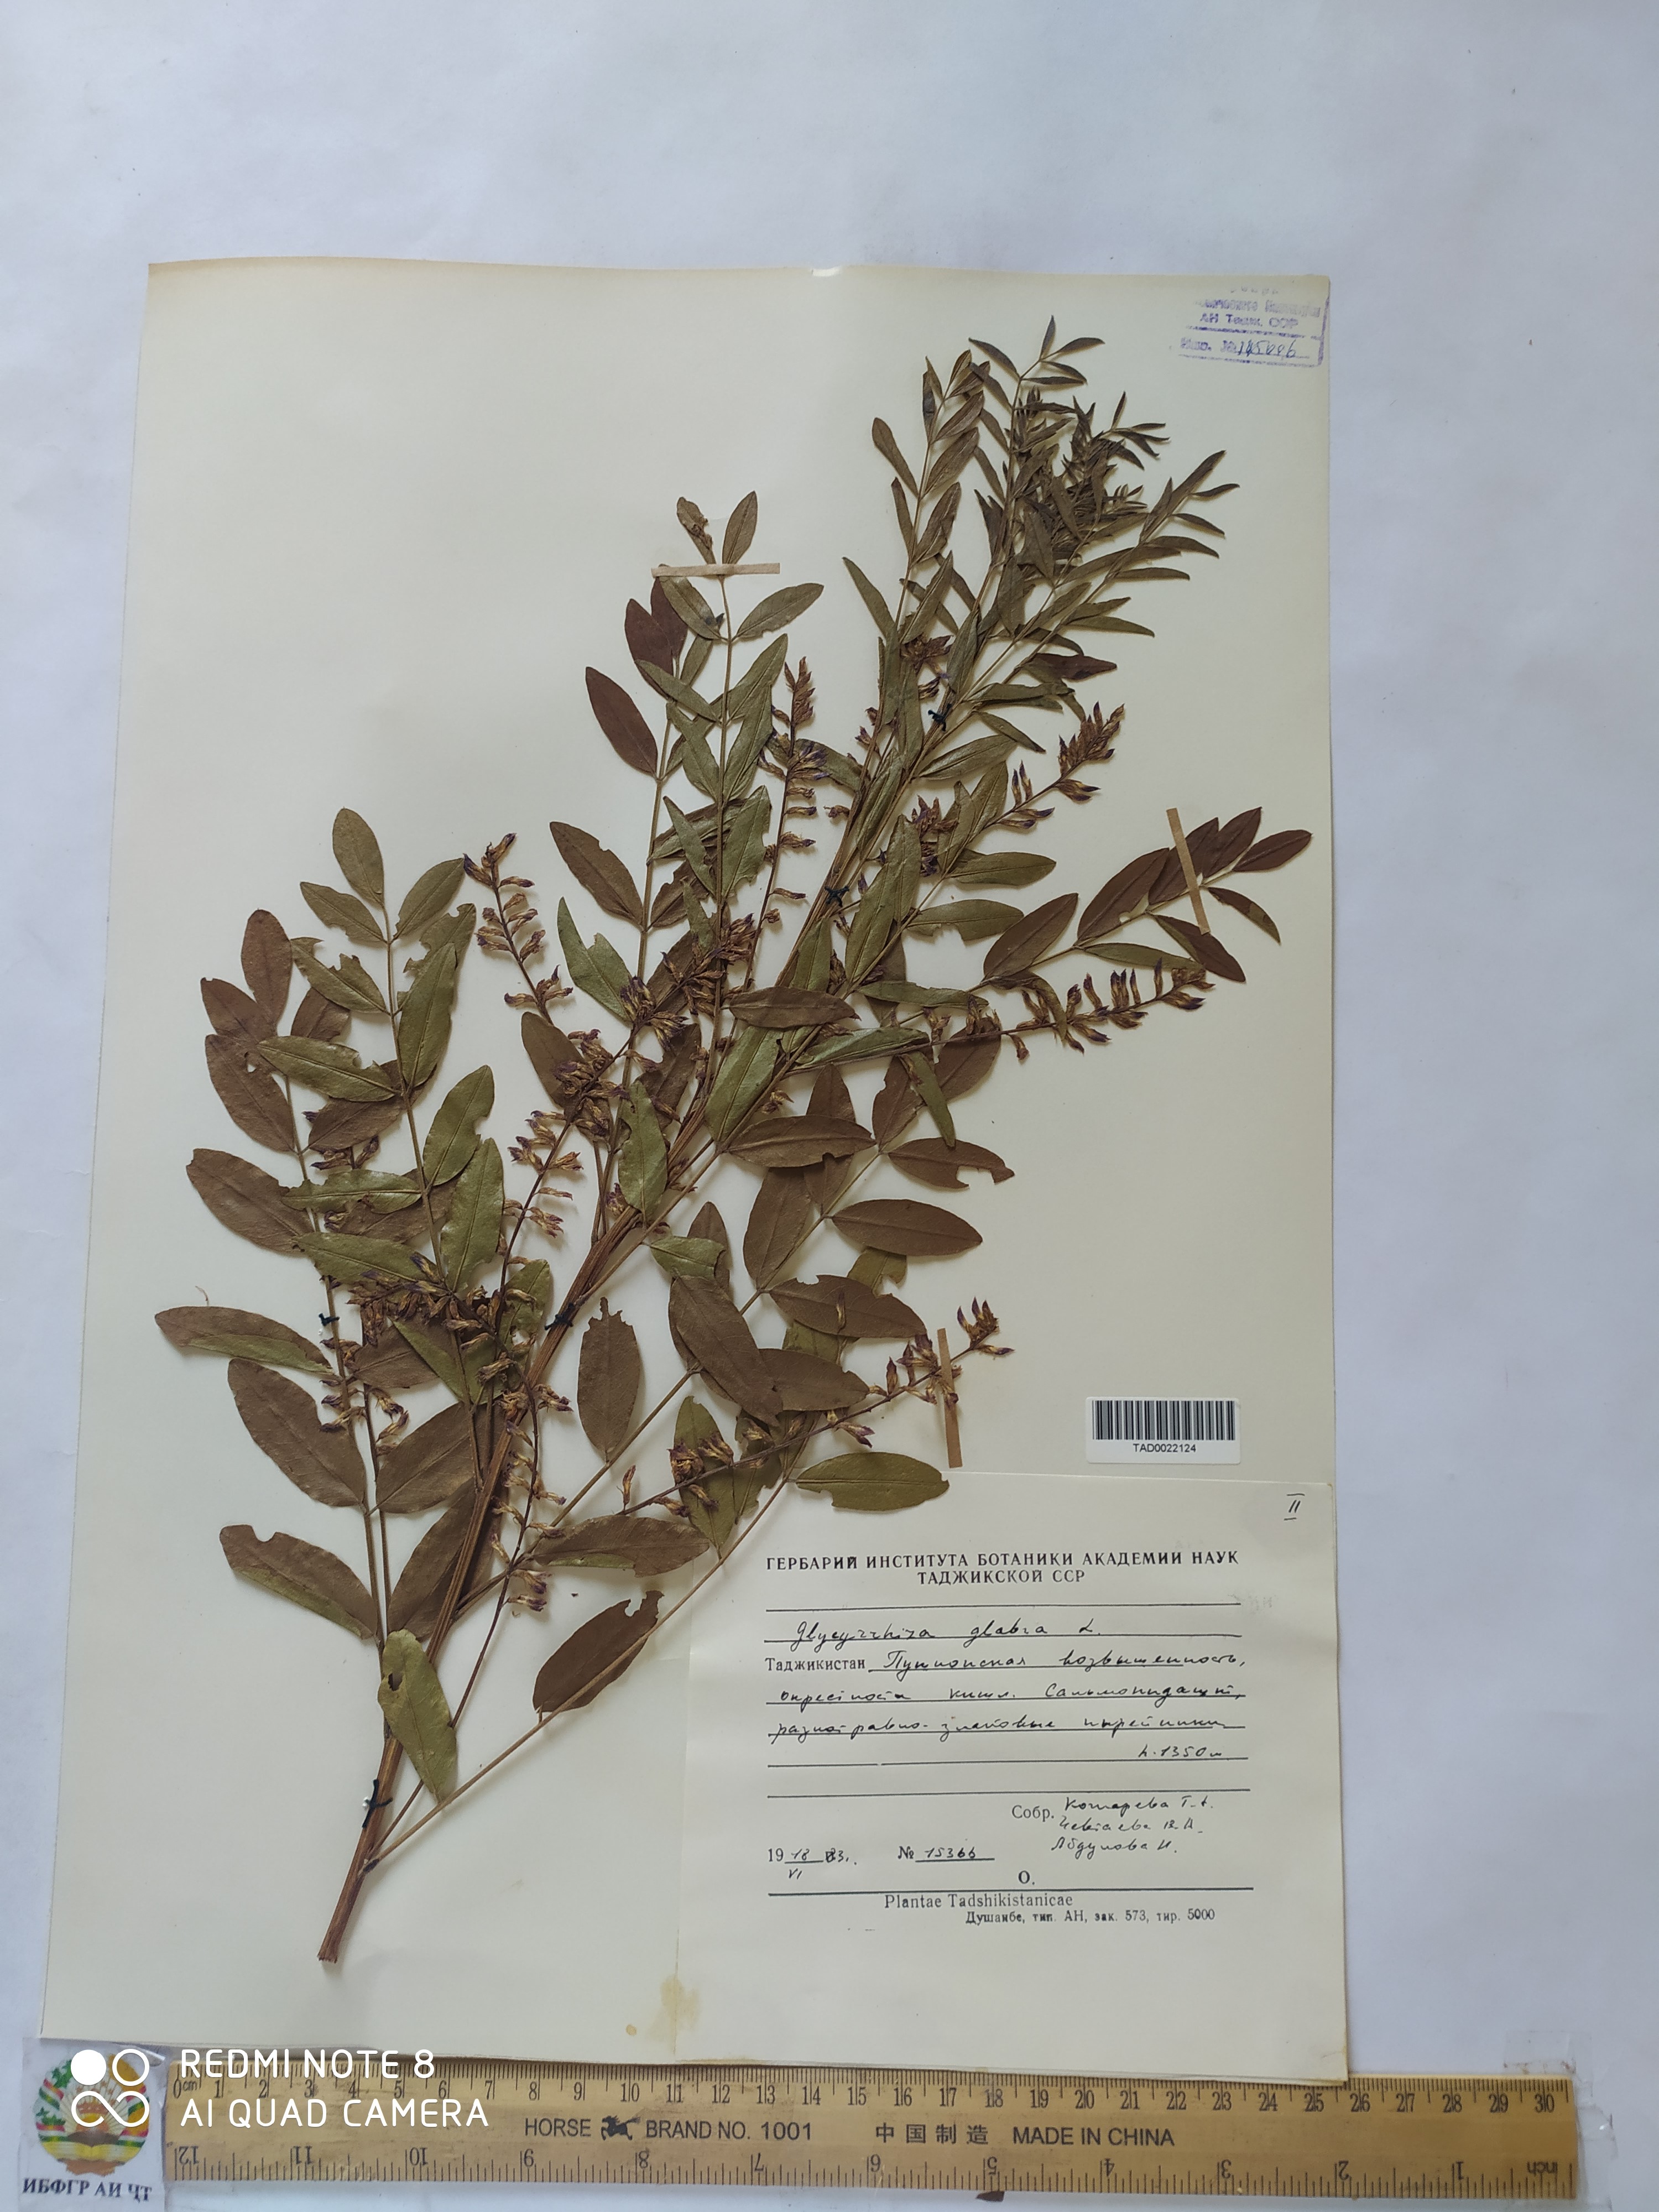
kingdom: Plantae
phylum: Tracheophyta
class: Magnoliopsida
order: Fabales
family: Fabaceae
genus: Glycyrrhiza
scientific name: Glycyrrhiza glabra
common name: Liquorice
